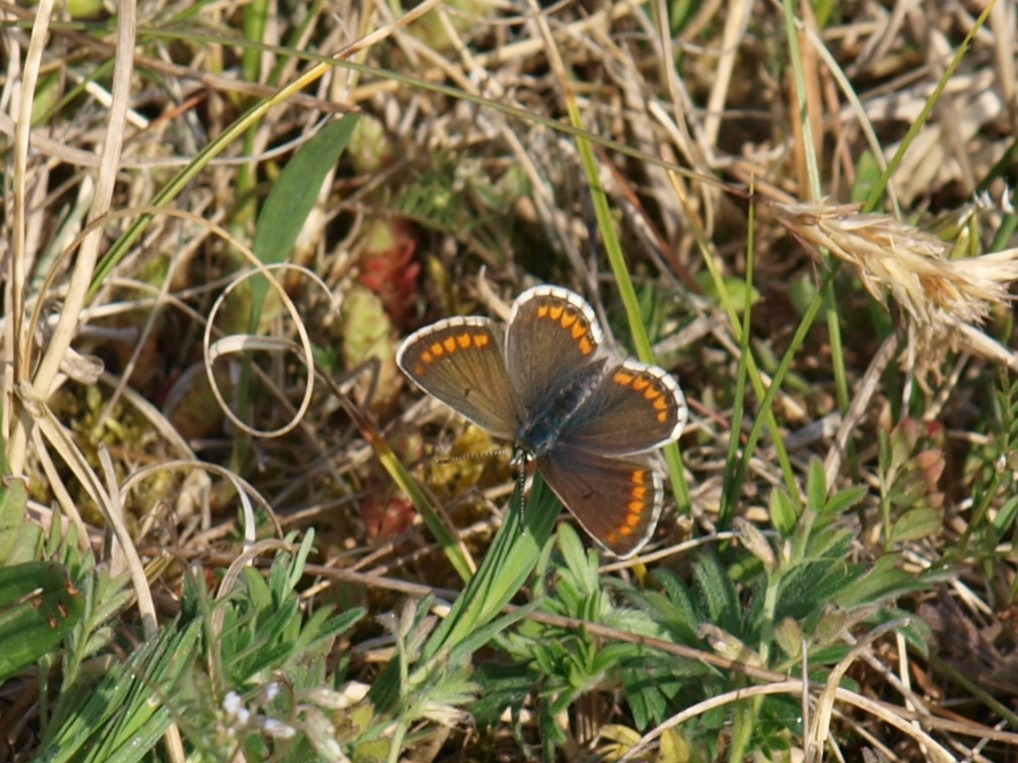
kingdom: Animalia
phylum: Arthropoda
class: Insecta
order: Lepidoptera
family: Lycaenidae
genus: Aricia
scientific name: Aricia agestis
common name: Rødplettet blåfugl
